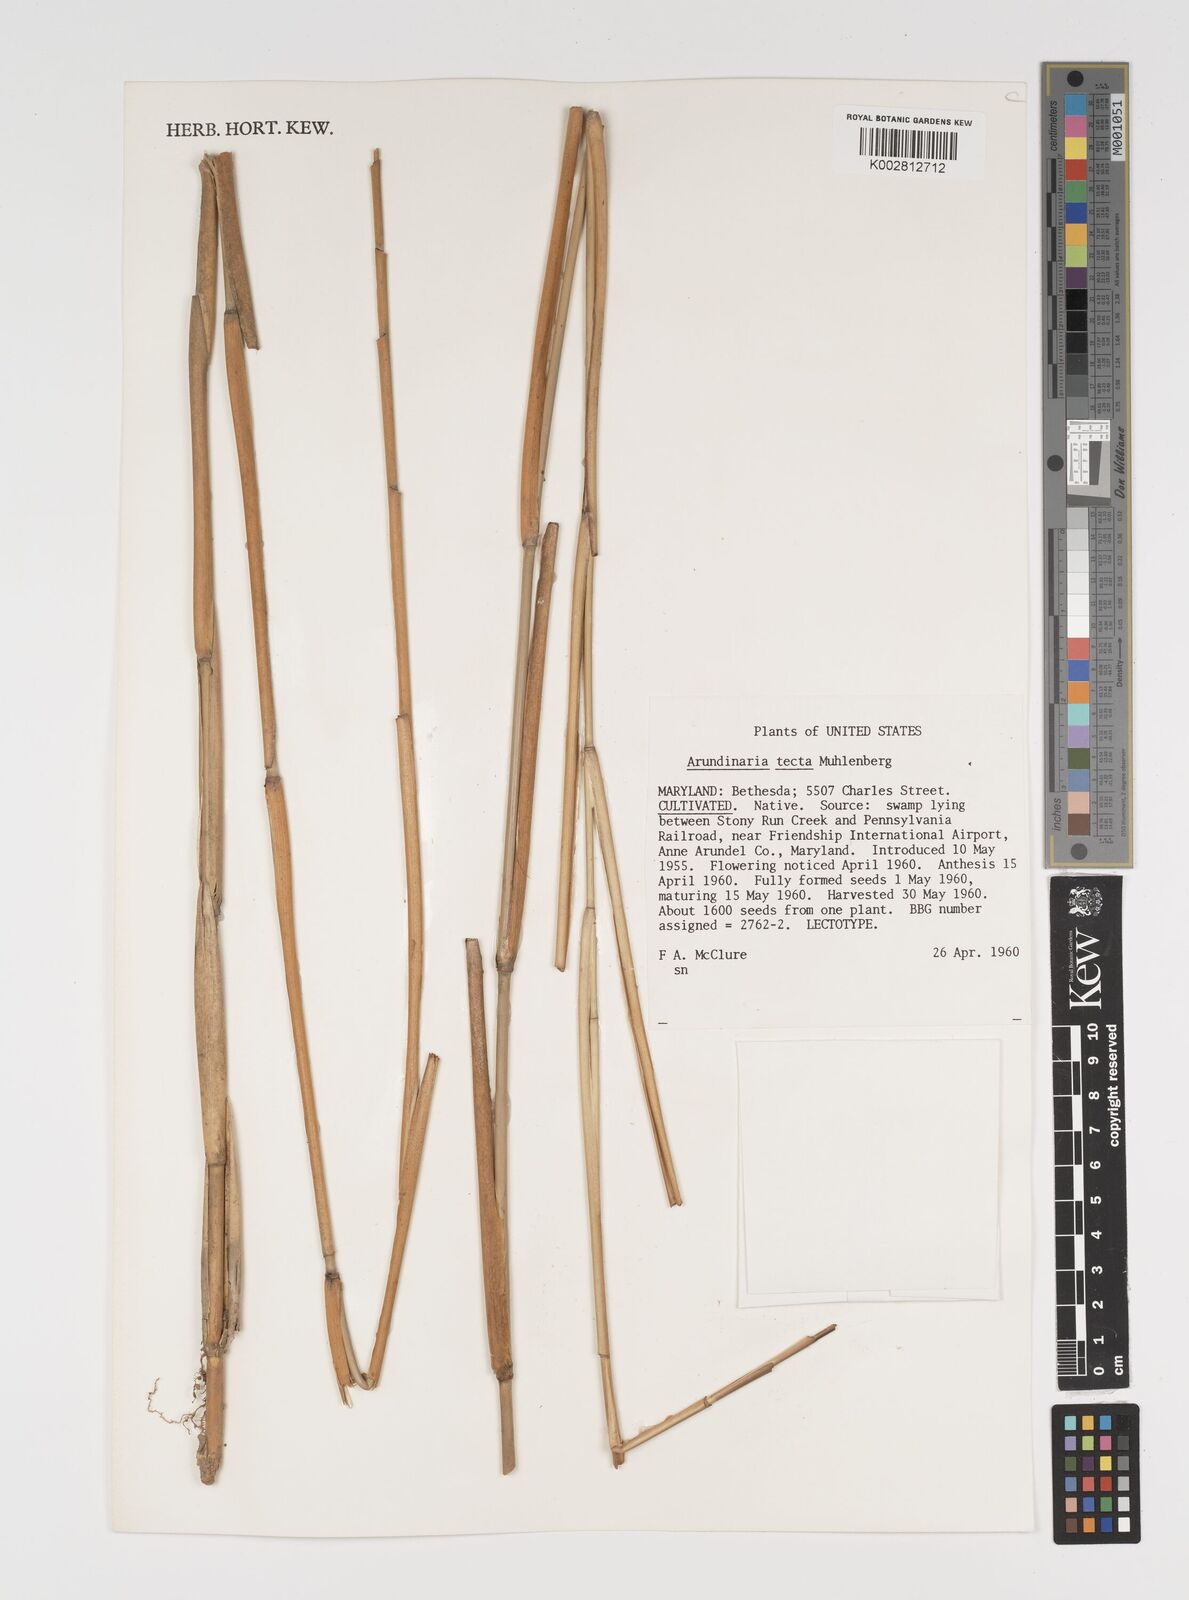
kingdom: Plantae
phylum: Tracheophyta
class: Liliopsida
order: Poales
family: Poaceae
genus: Arundinaria
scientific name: Arundinaria tecta
